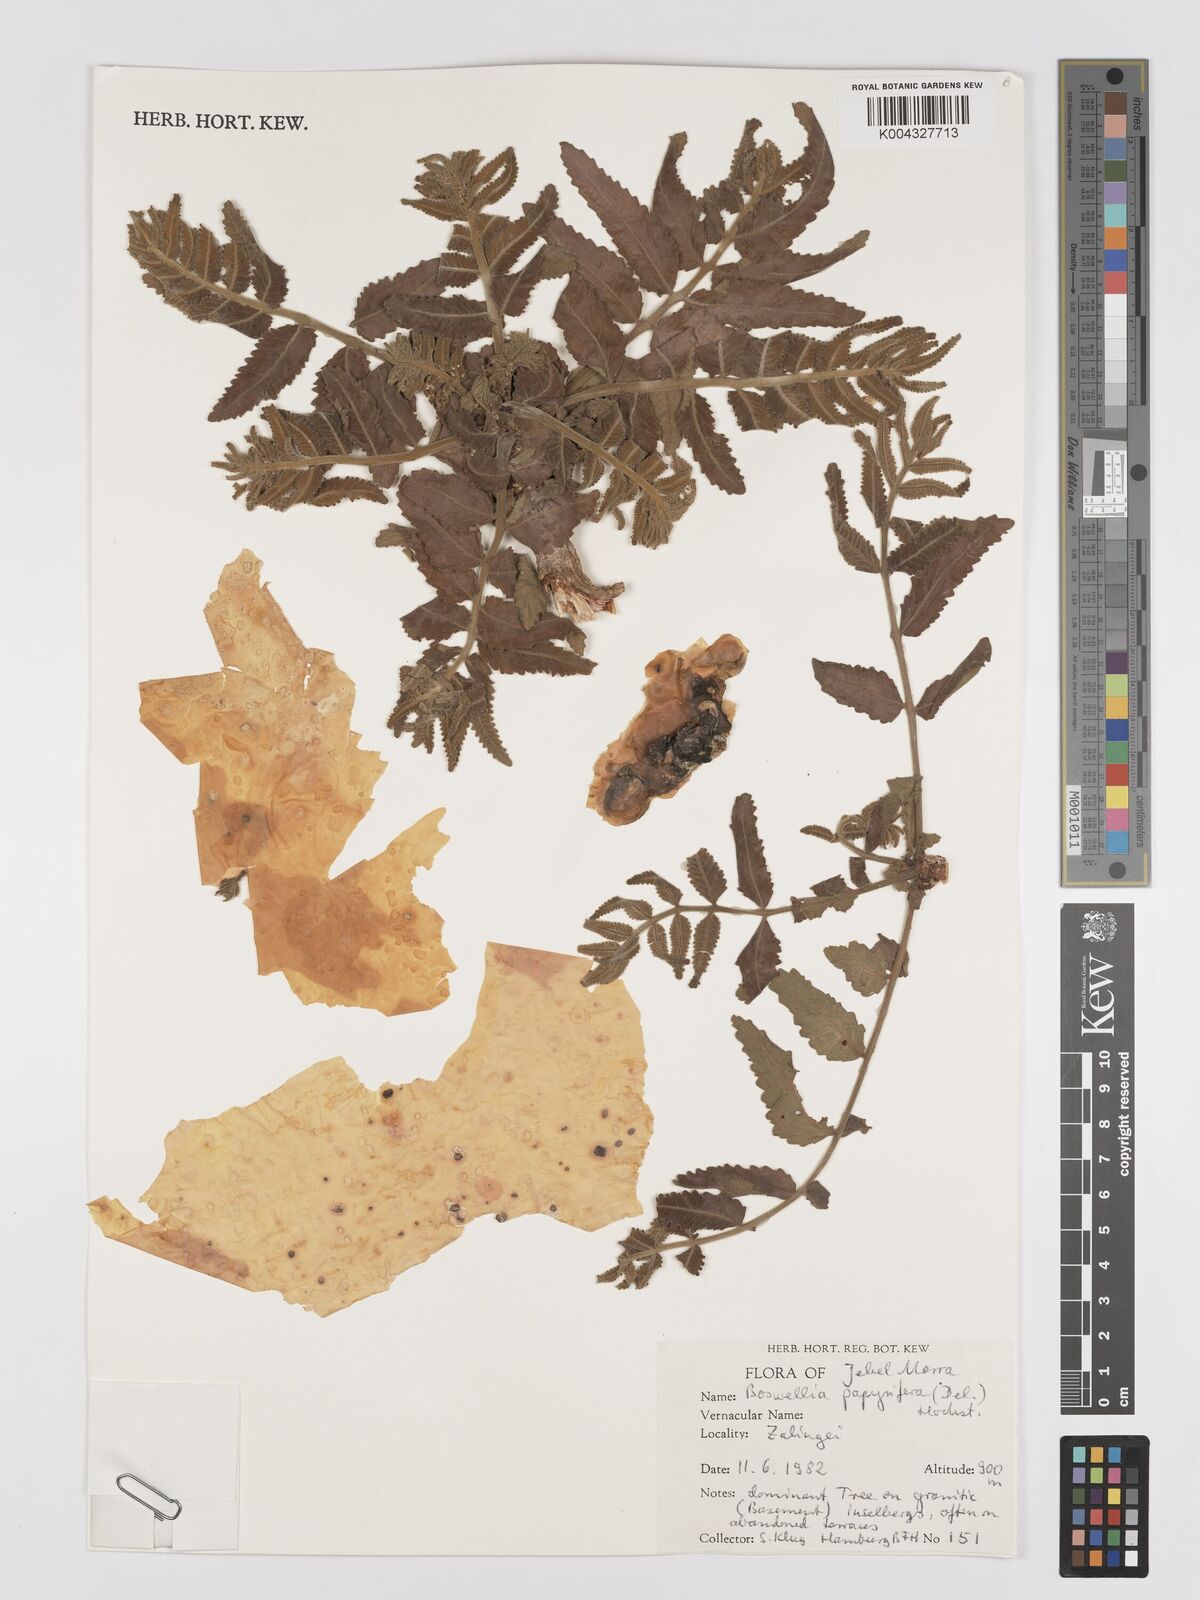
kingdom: Plantae
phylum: Tracheophyta
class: Magnoliopsida
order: Sapindales
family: Burseraceae
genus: Boswellia
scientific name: Boswellia papyrifera
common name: Sudanese frankincense
